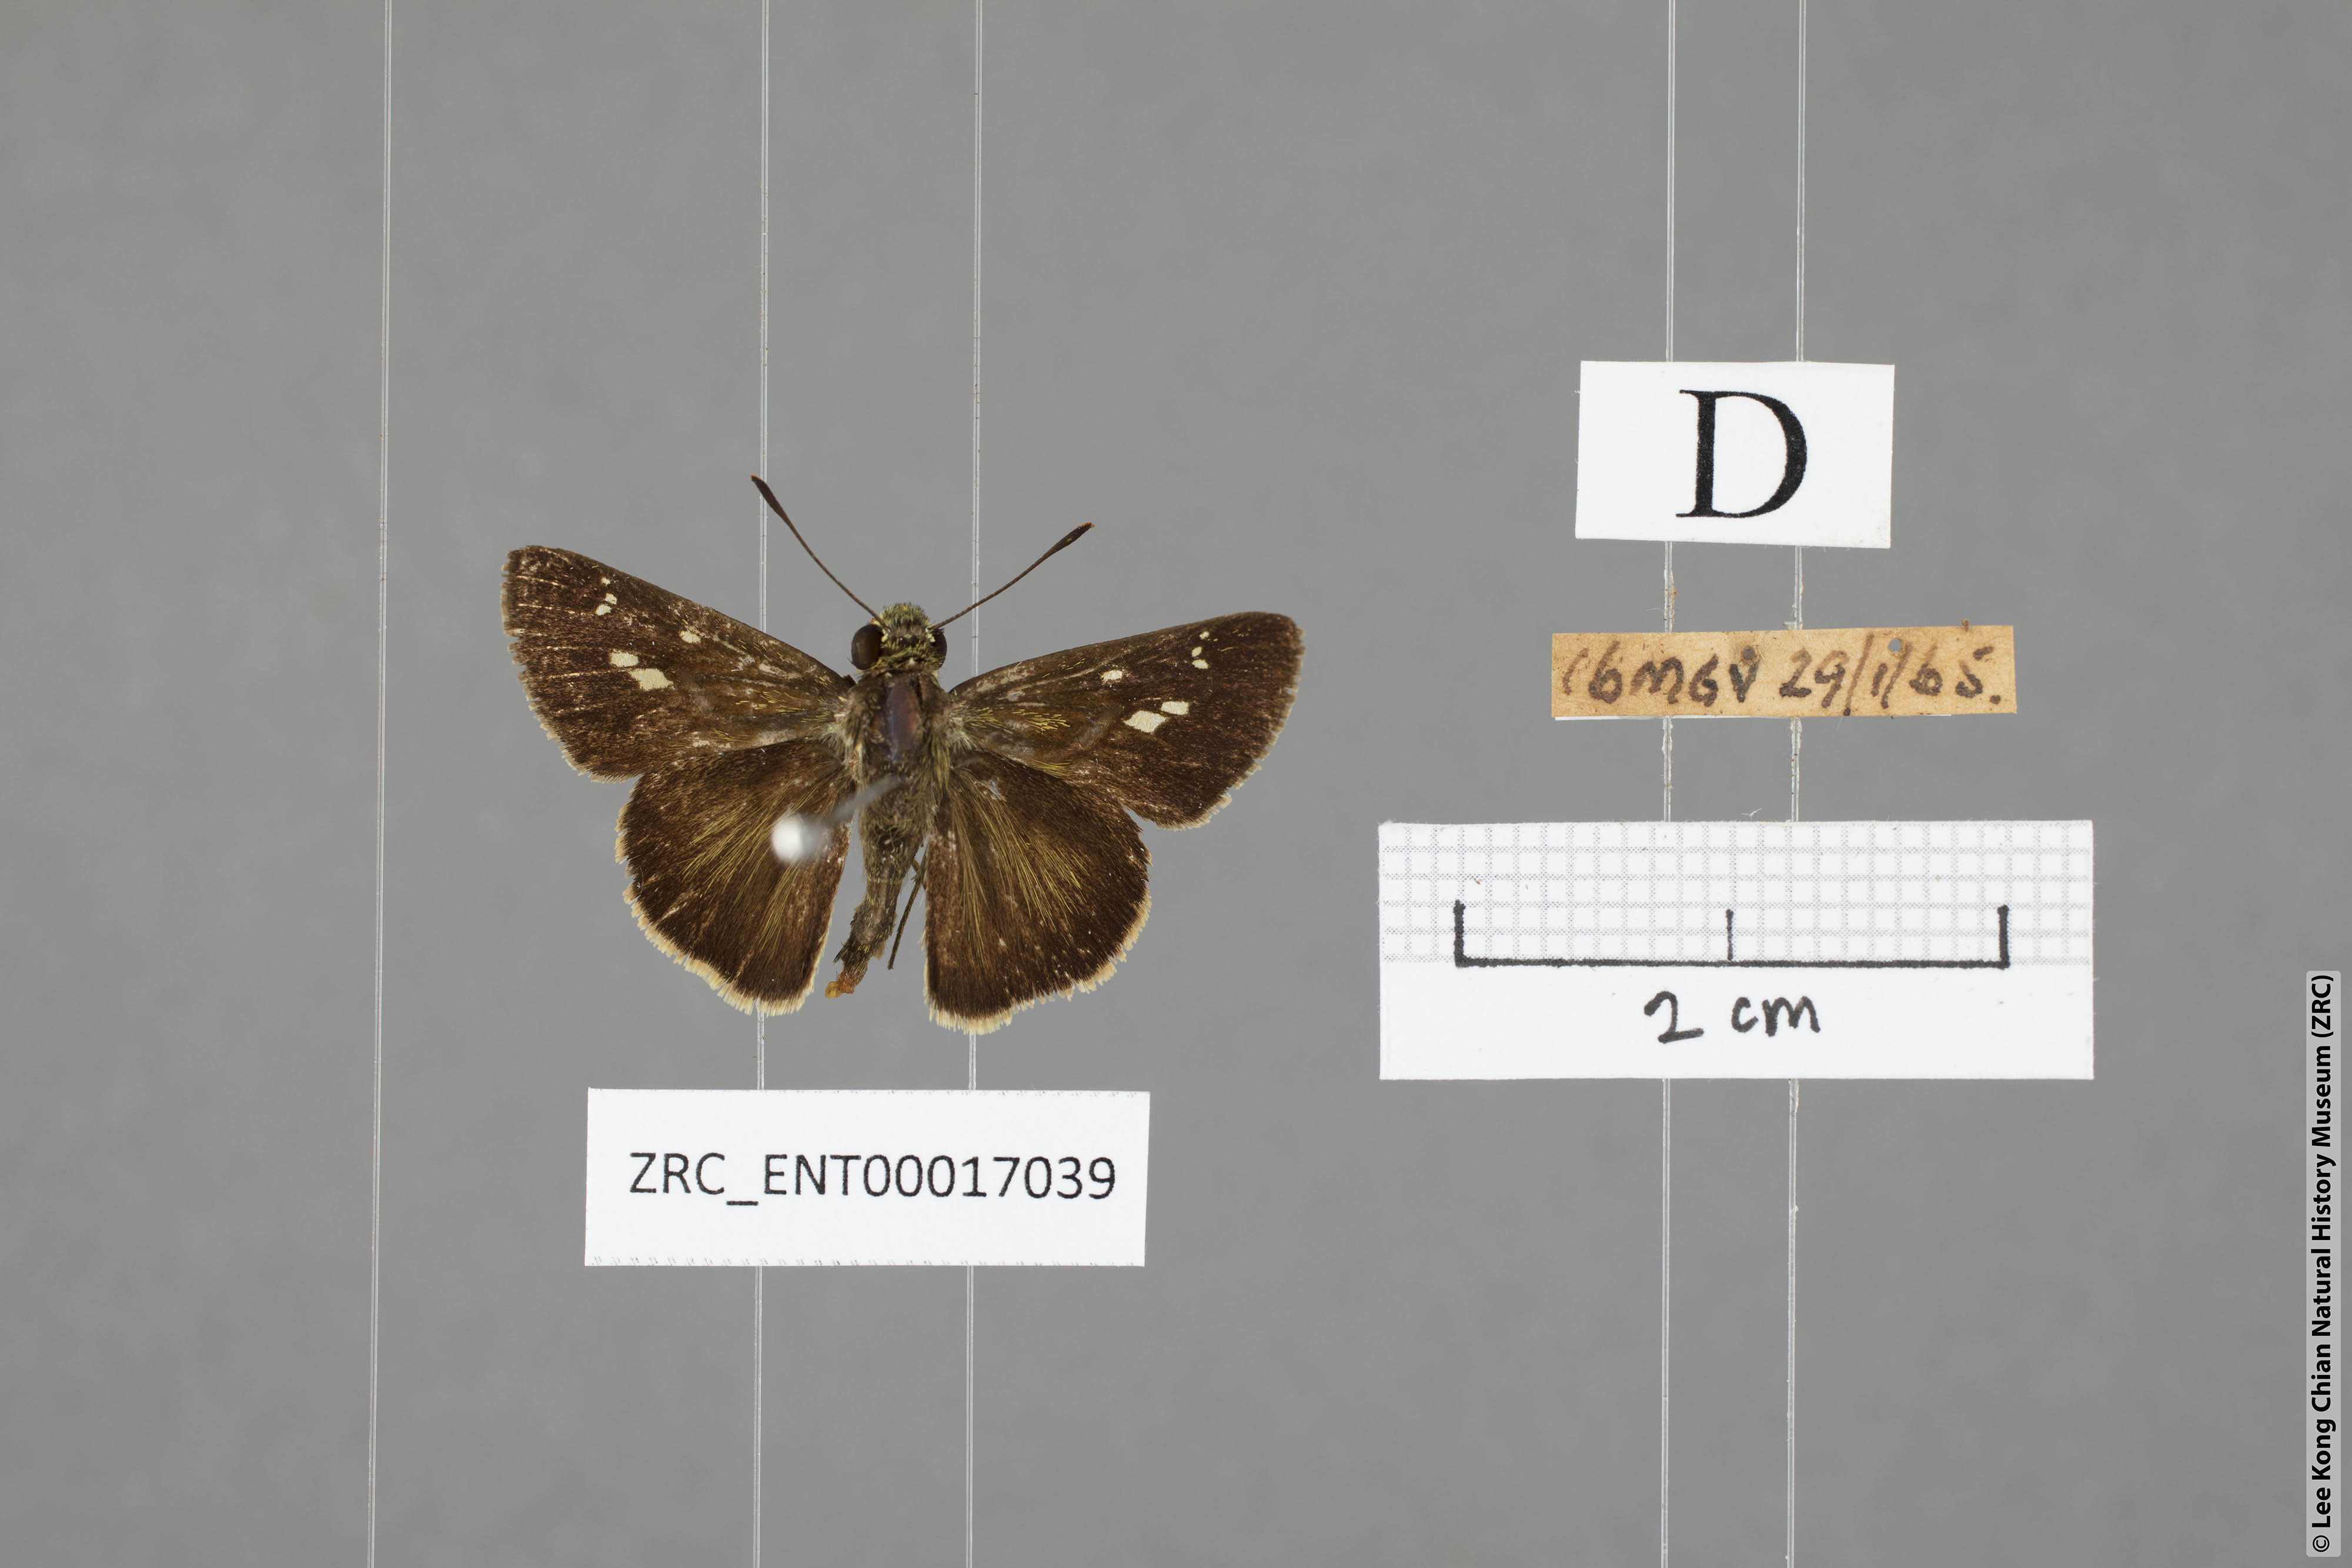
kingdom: Animalia
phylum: Arthropoda
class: Insecta
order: Lepidoptera
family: Hesperiidae
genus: Halpe
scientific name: Halpe pelethronix
